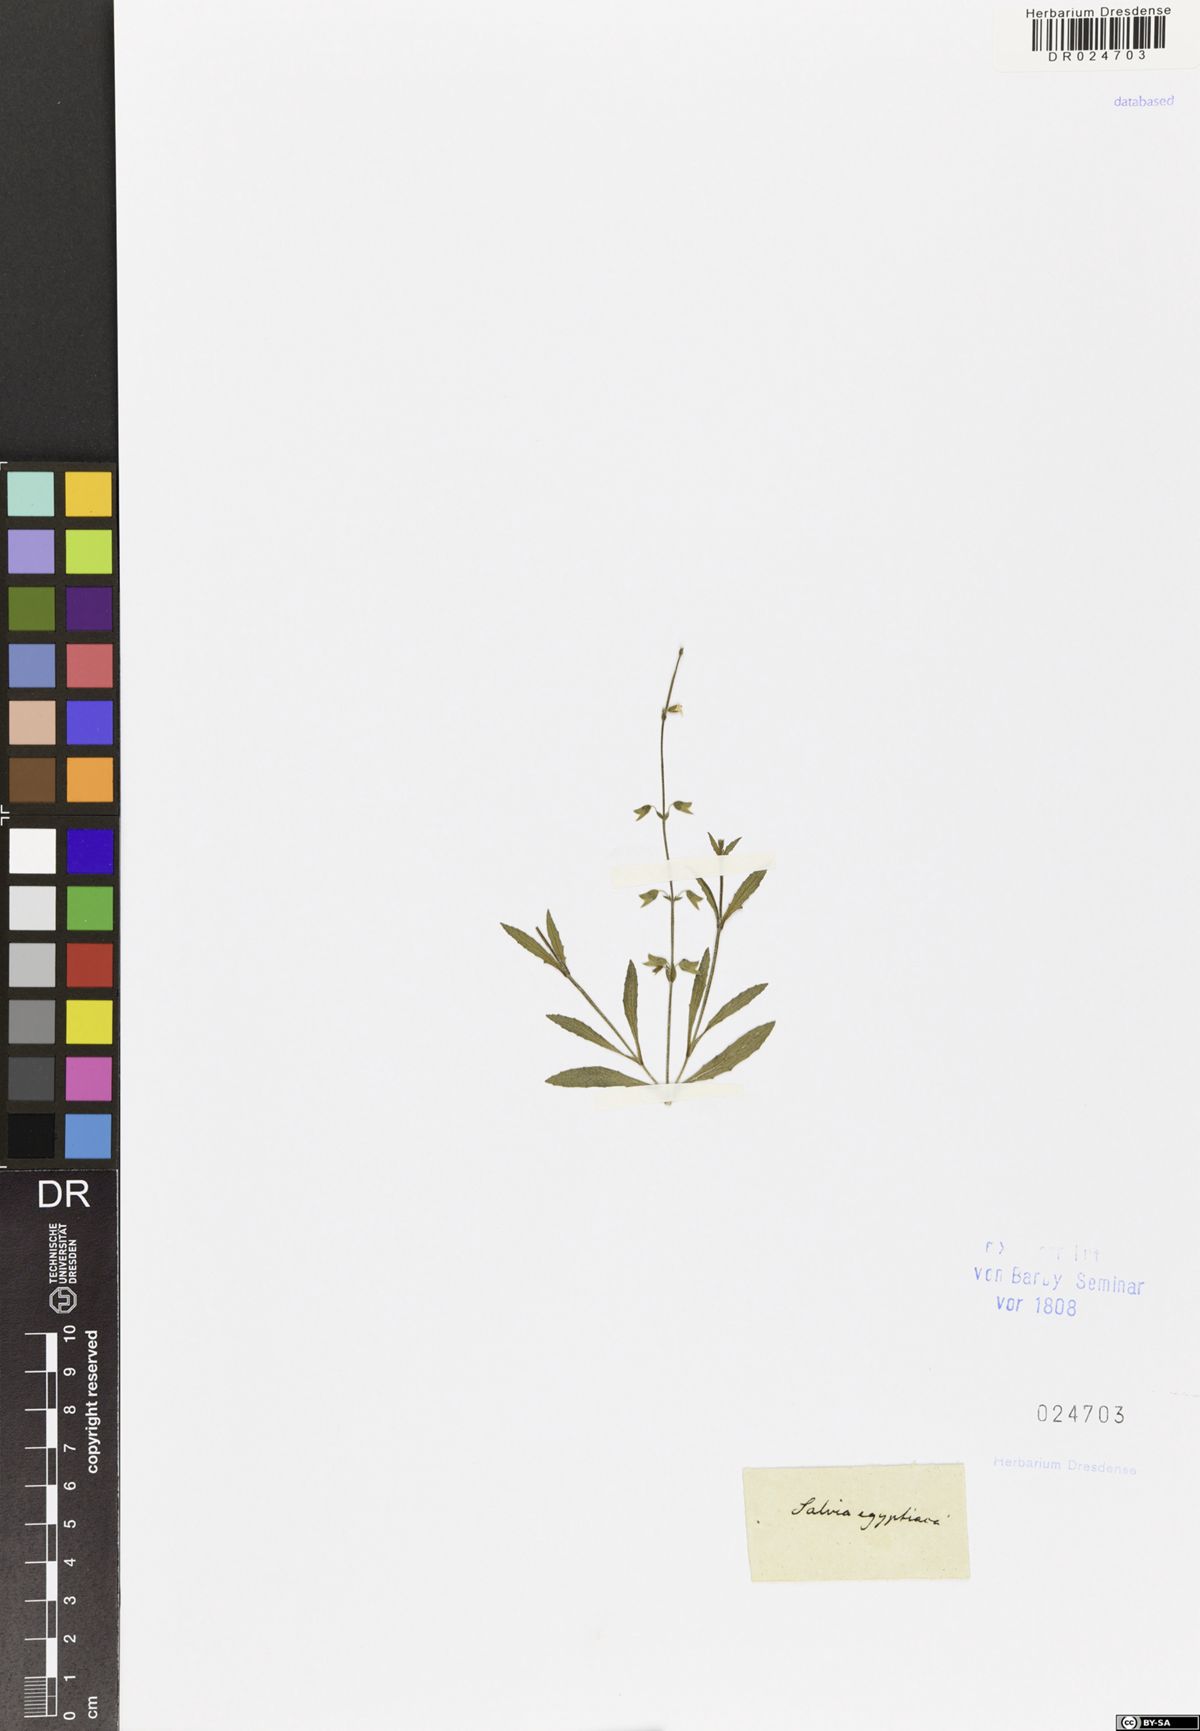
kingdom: Plantae
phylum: Tracheophyta
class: Magnoliopsida
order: Lamiales
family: Lamiaceae
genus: Salvia
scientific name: Salvia aegyptiaca
